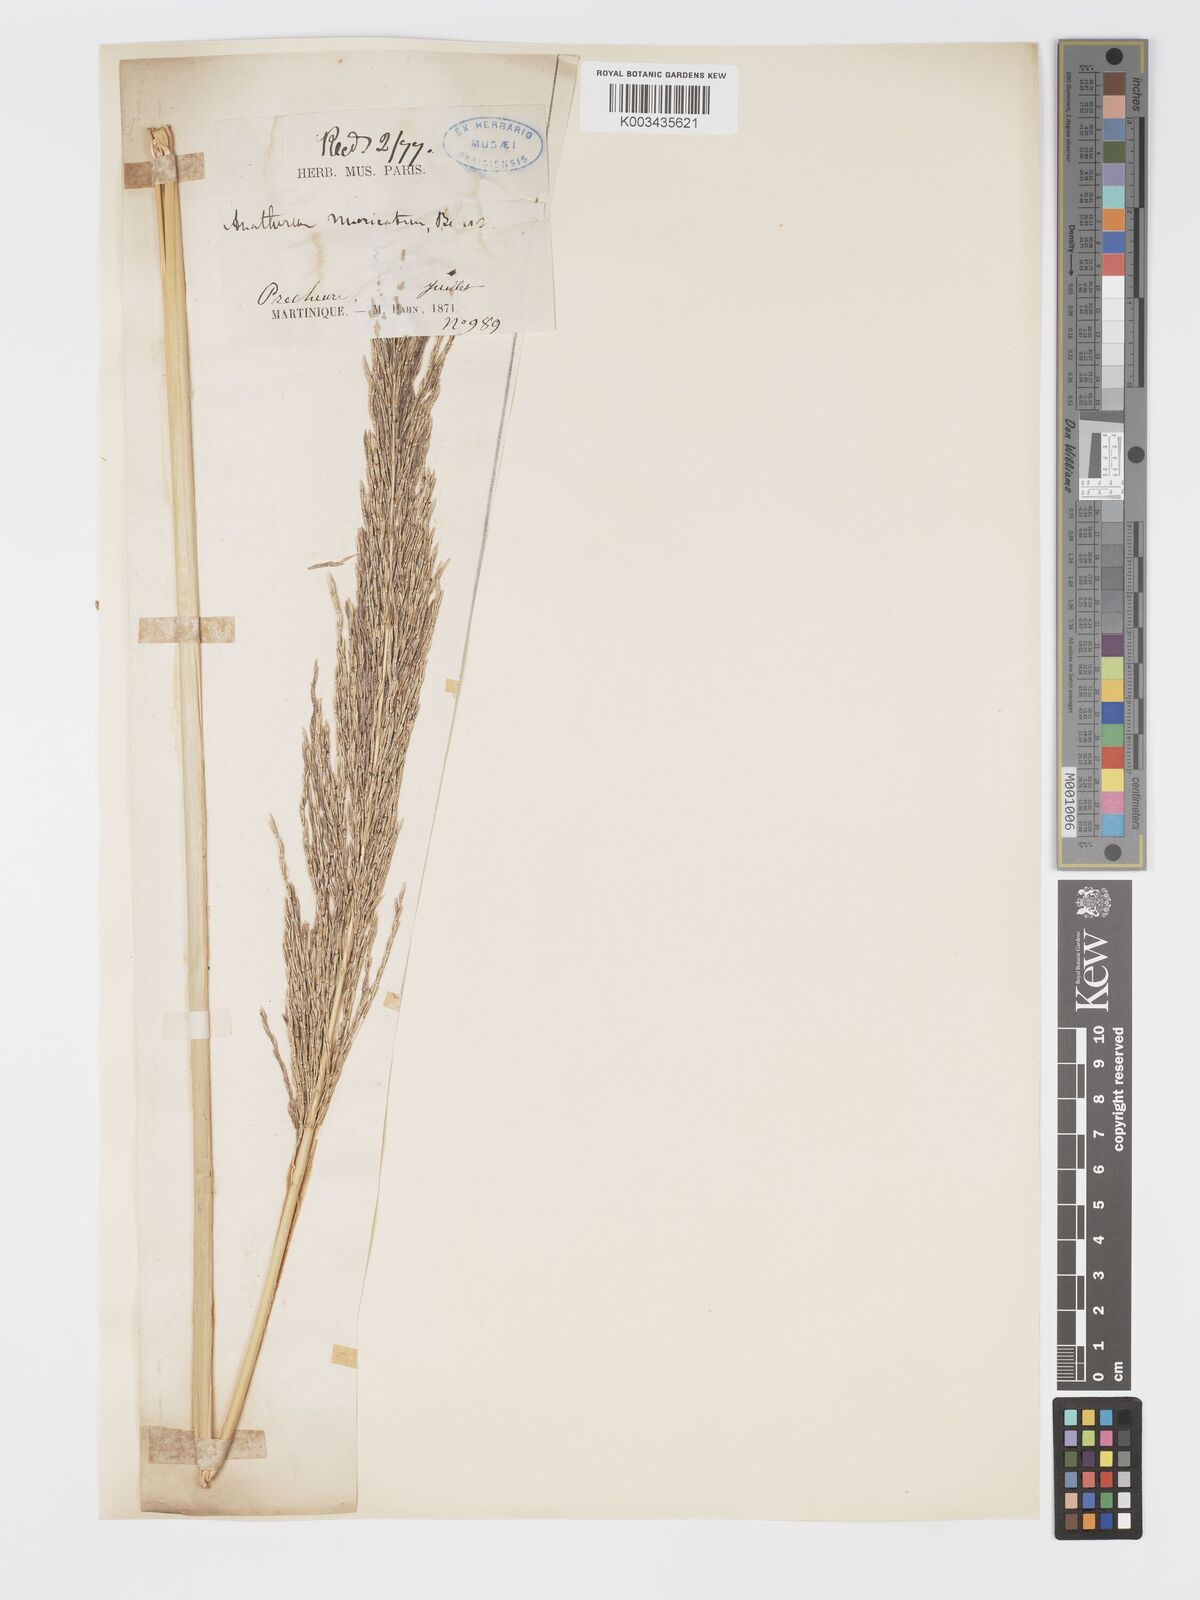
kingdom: Plantae
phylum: Tracheophyta
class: Liliopsida
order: Poales
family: Poaceae
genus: Chrysopogon
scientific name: Chrysopogon zizanioides
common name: False beardgrass
